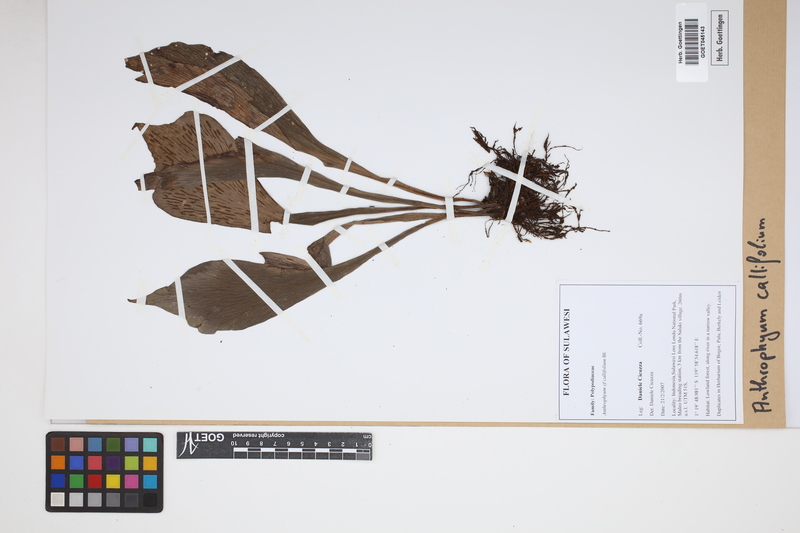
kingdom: Plantae
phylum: Tracheophyta
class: Polypodiopsida
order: Polypodiales
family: Pteridaceae
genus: Antrophyum
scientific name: Antrophyum callifolium
